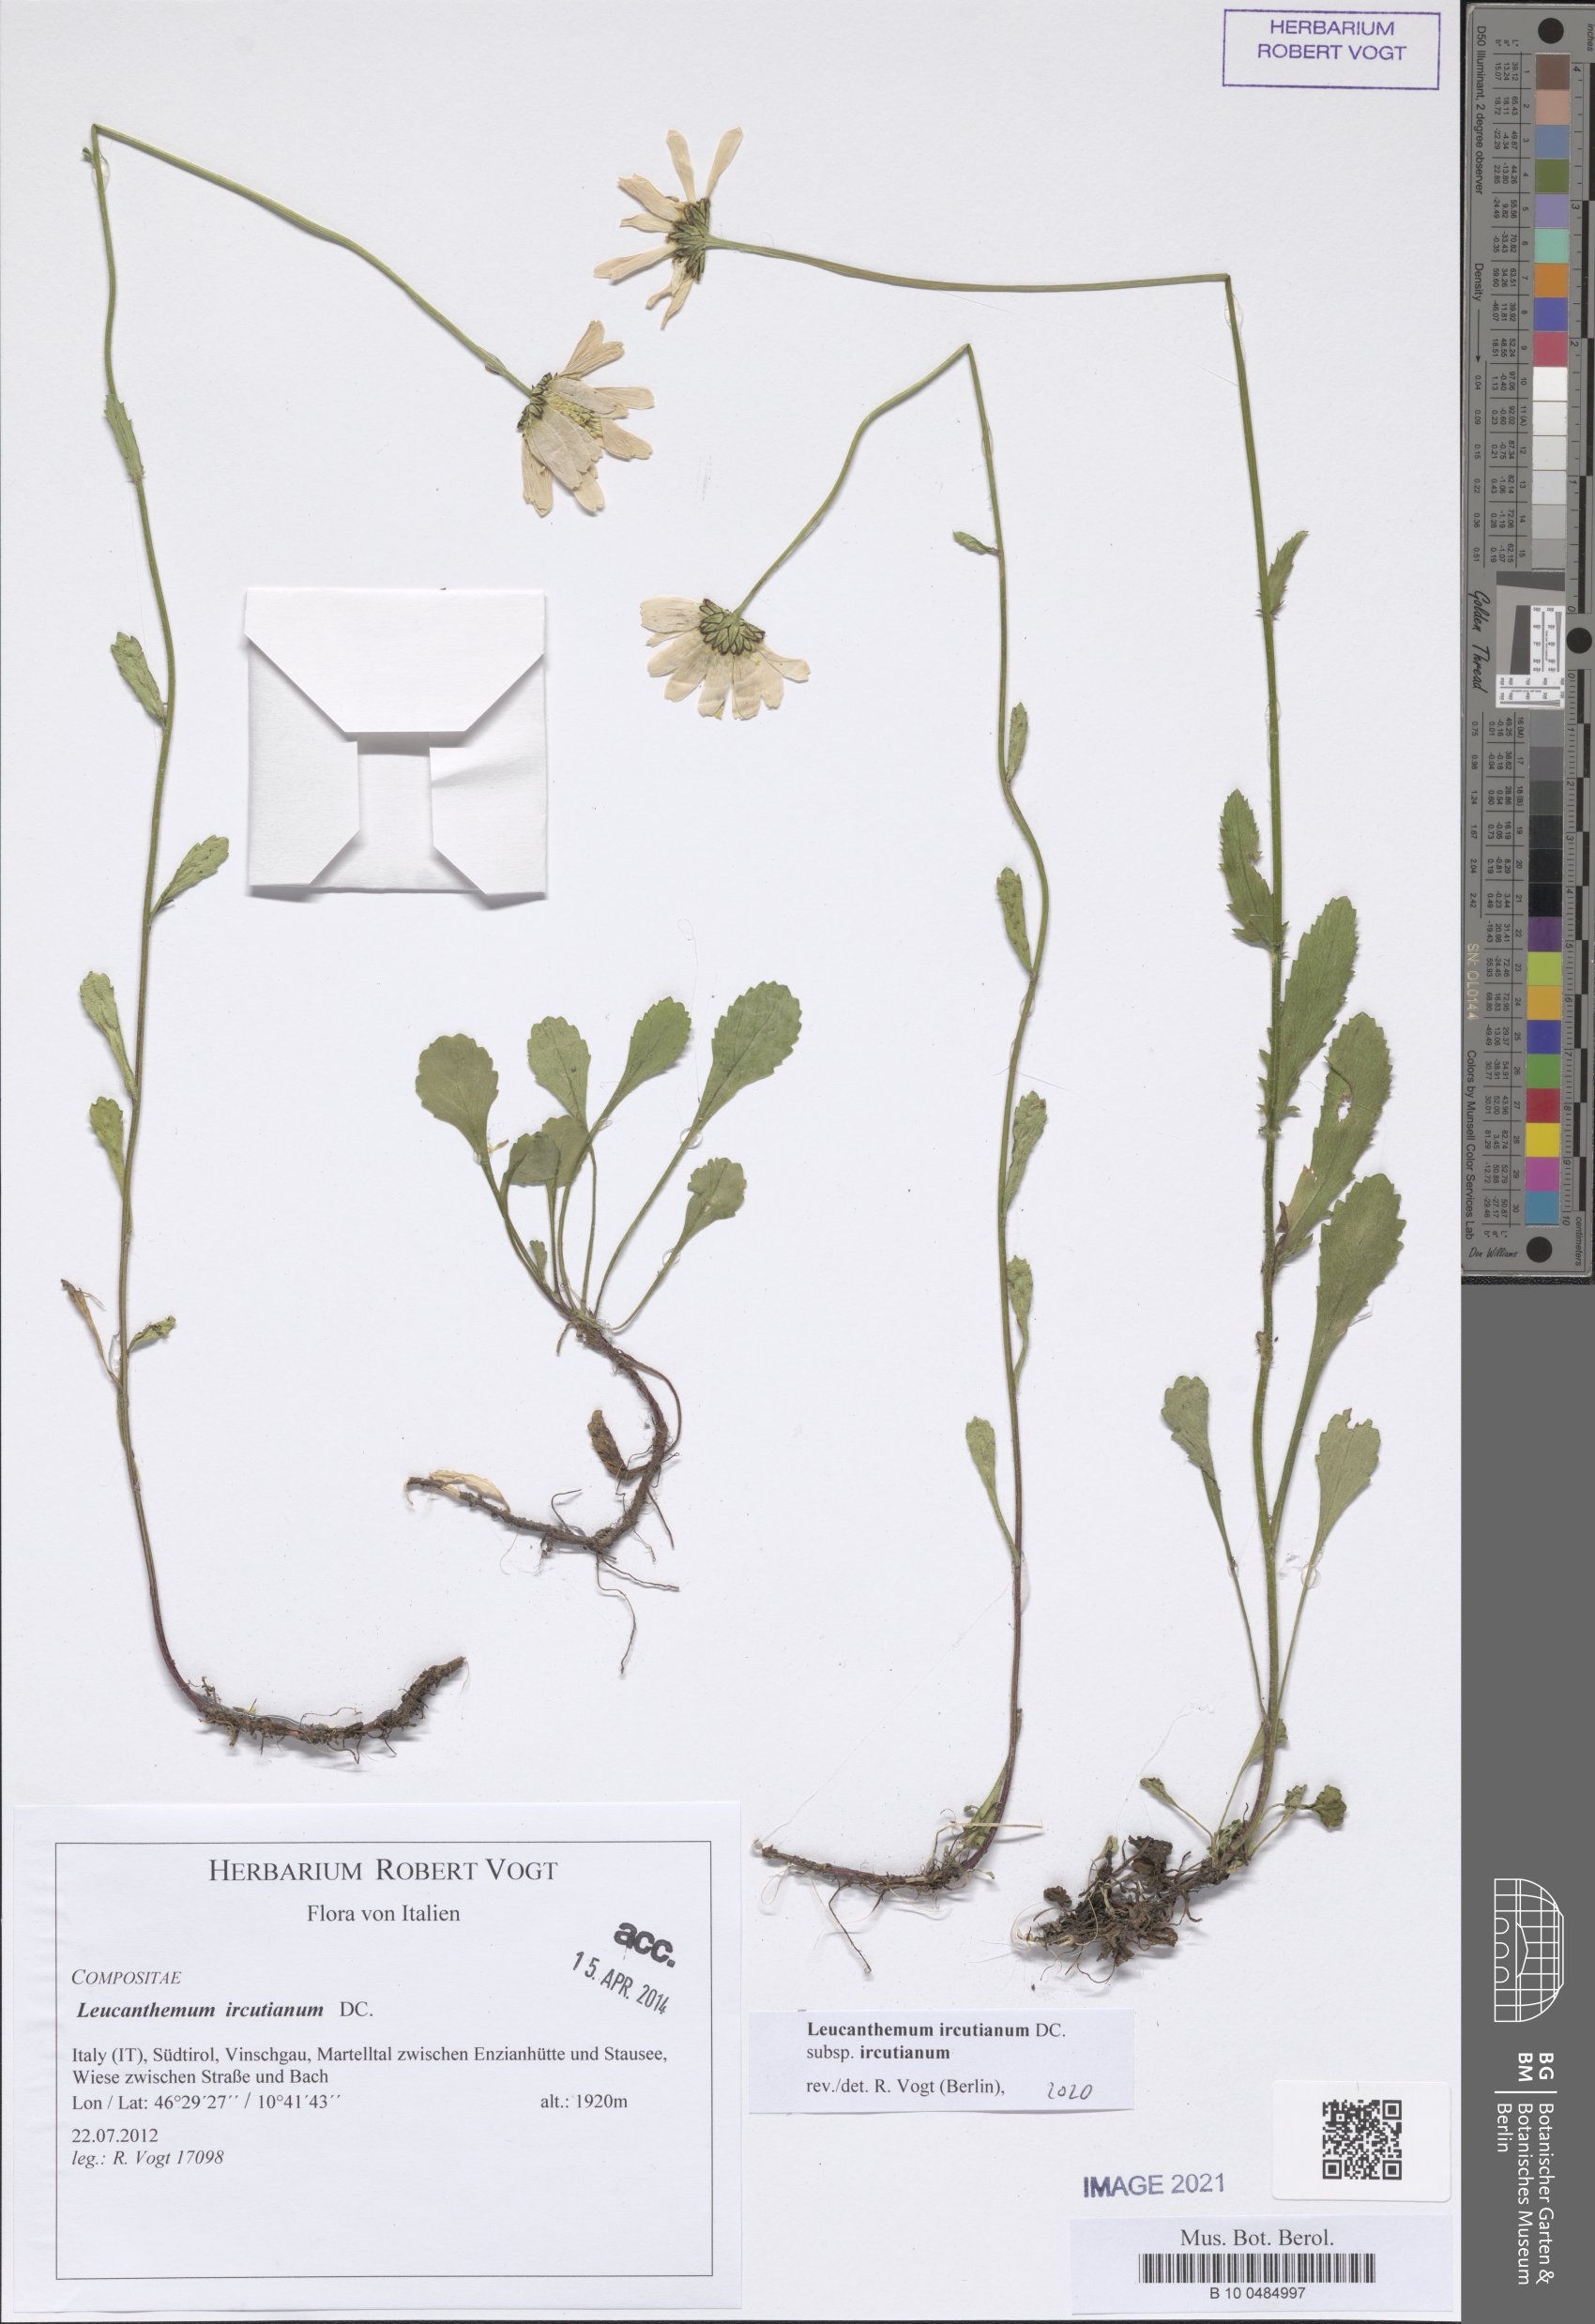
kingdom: Plantae
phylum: Tracheophyta
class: Magnoliopsida
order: Asterales
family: Asteraceae
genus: Leucanthemum
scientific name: Leucanthemum ircutianum
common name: Daisy
